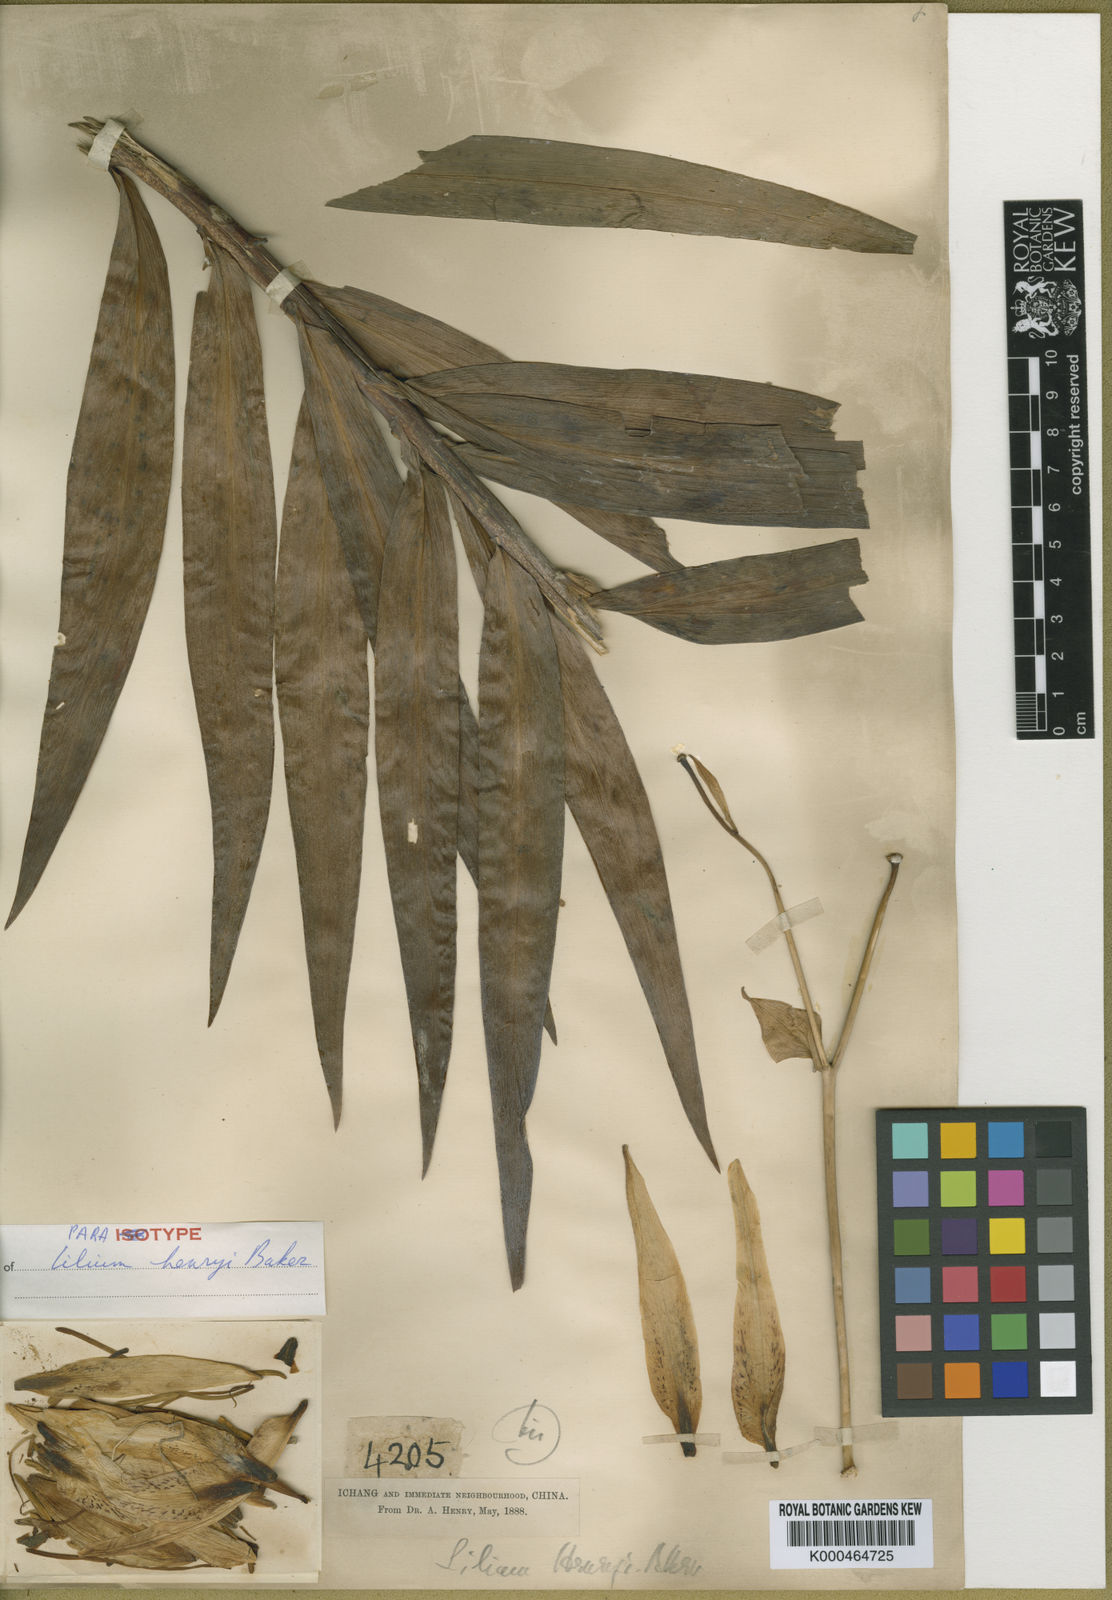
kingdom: Plantae
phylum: Tracheophyta
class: Liliopsida
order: Liliales
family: Liliaceae
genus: Lilium
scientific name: Lilium henryi
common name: Henry's lily
